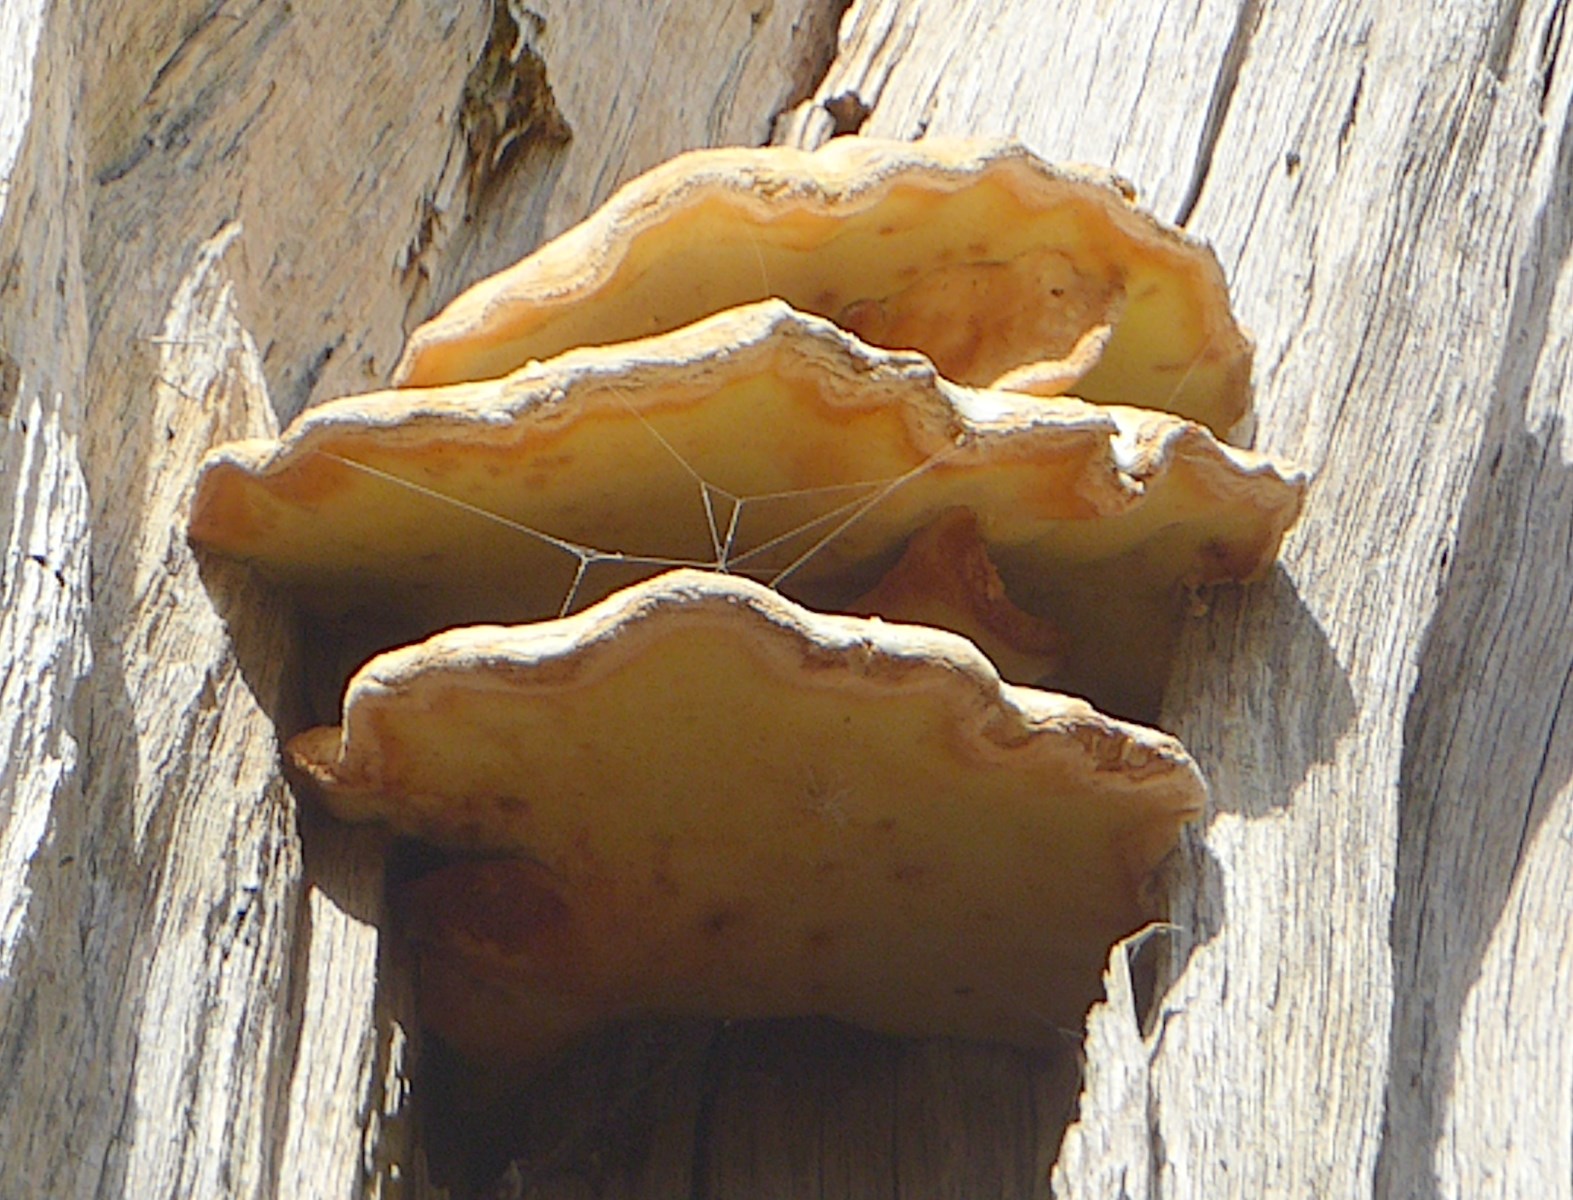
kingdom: Fungi
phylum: Basidiomycota
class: Agaricomycetes
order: Polyporales
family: Laetiporaceae
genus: Laetiporus
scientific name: Laetiporus sulphureus
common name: svovlporesvamp
